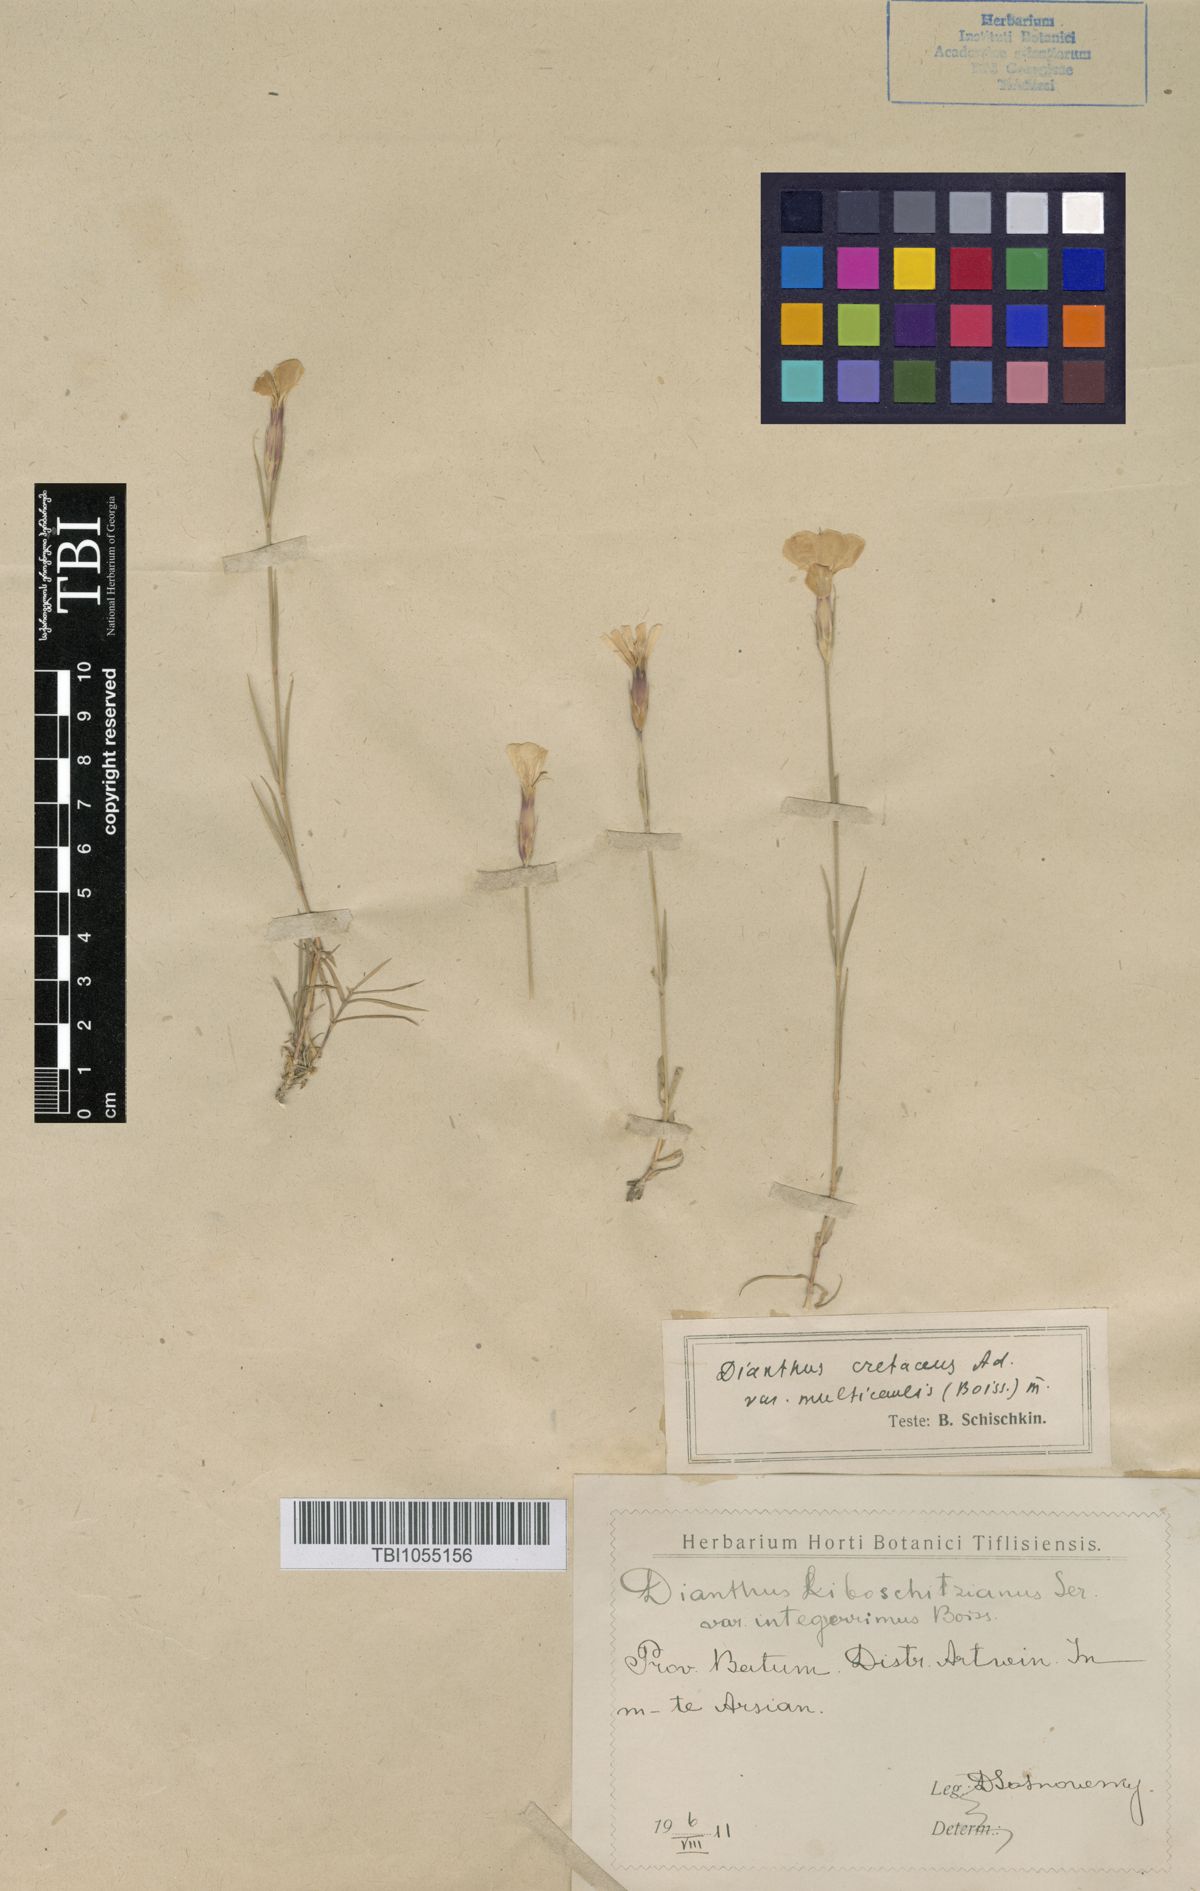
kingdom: Plantae
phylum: Tracheophyta
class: Magnoliopsida
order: Caryophyllales
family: Caryophyllaceae
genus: Dianthus
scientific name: Dianthus cretaceus
